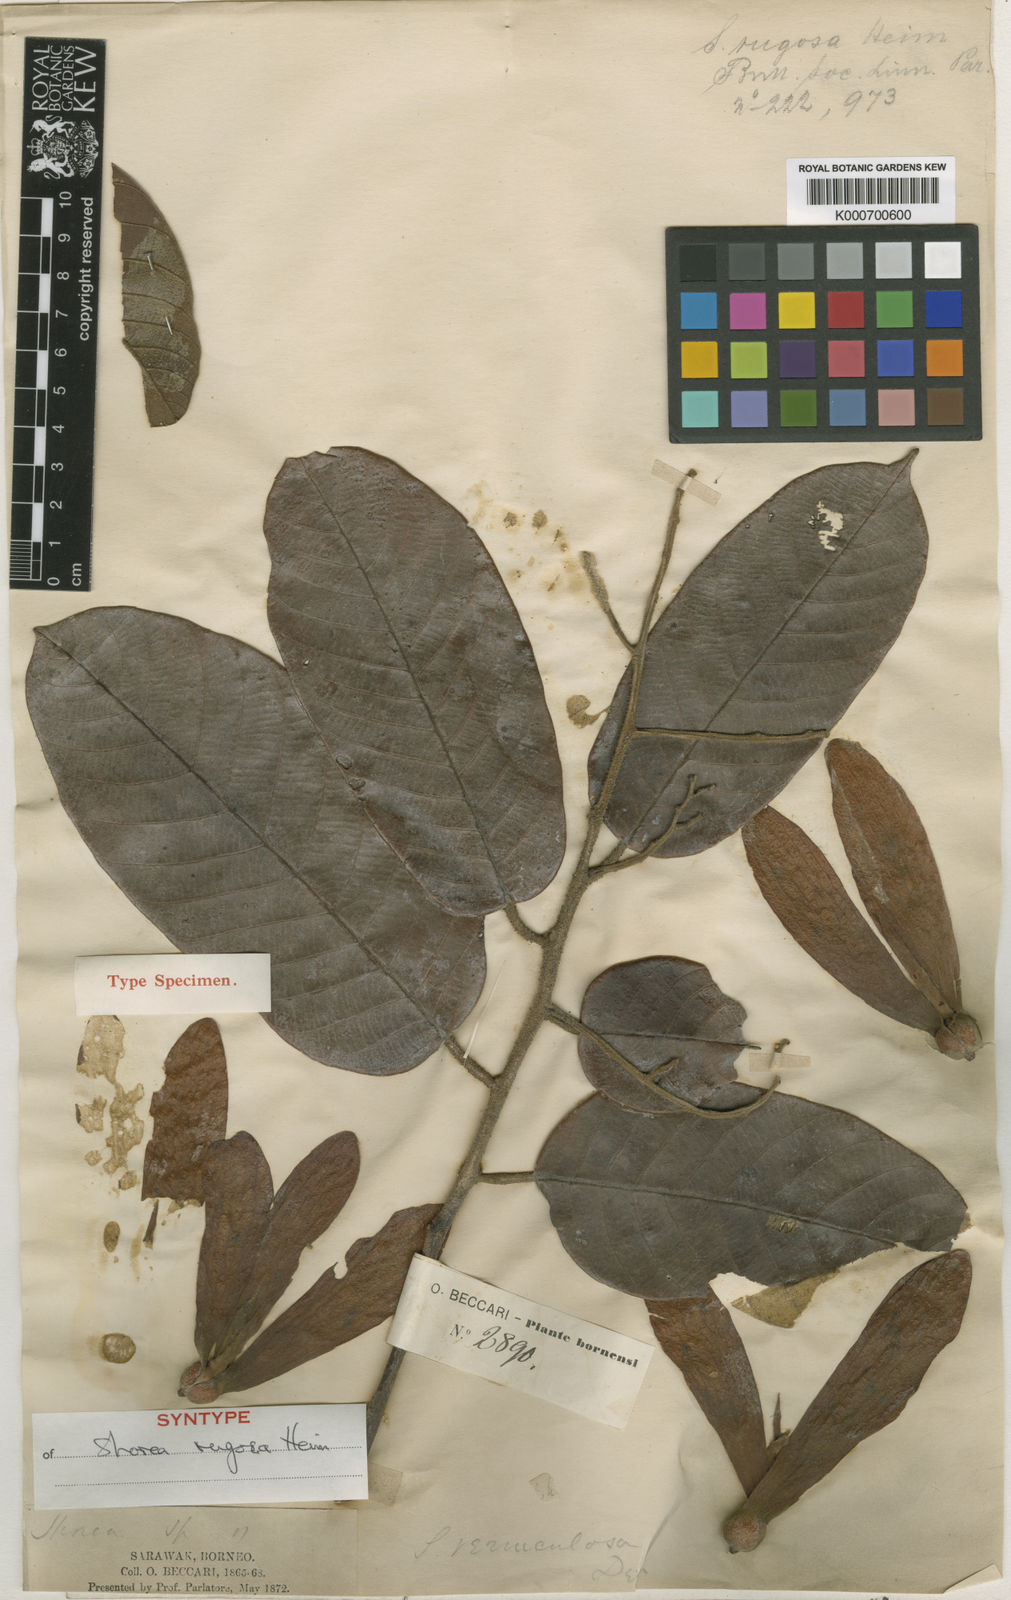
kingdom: Plantae
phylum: Tracheophyta
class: Magnoliopsida
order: Malvales
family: Dipterocarpaceae
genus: Shorea
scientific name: Shorea rugosa
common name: Dark red meranti
